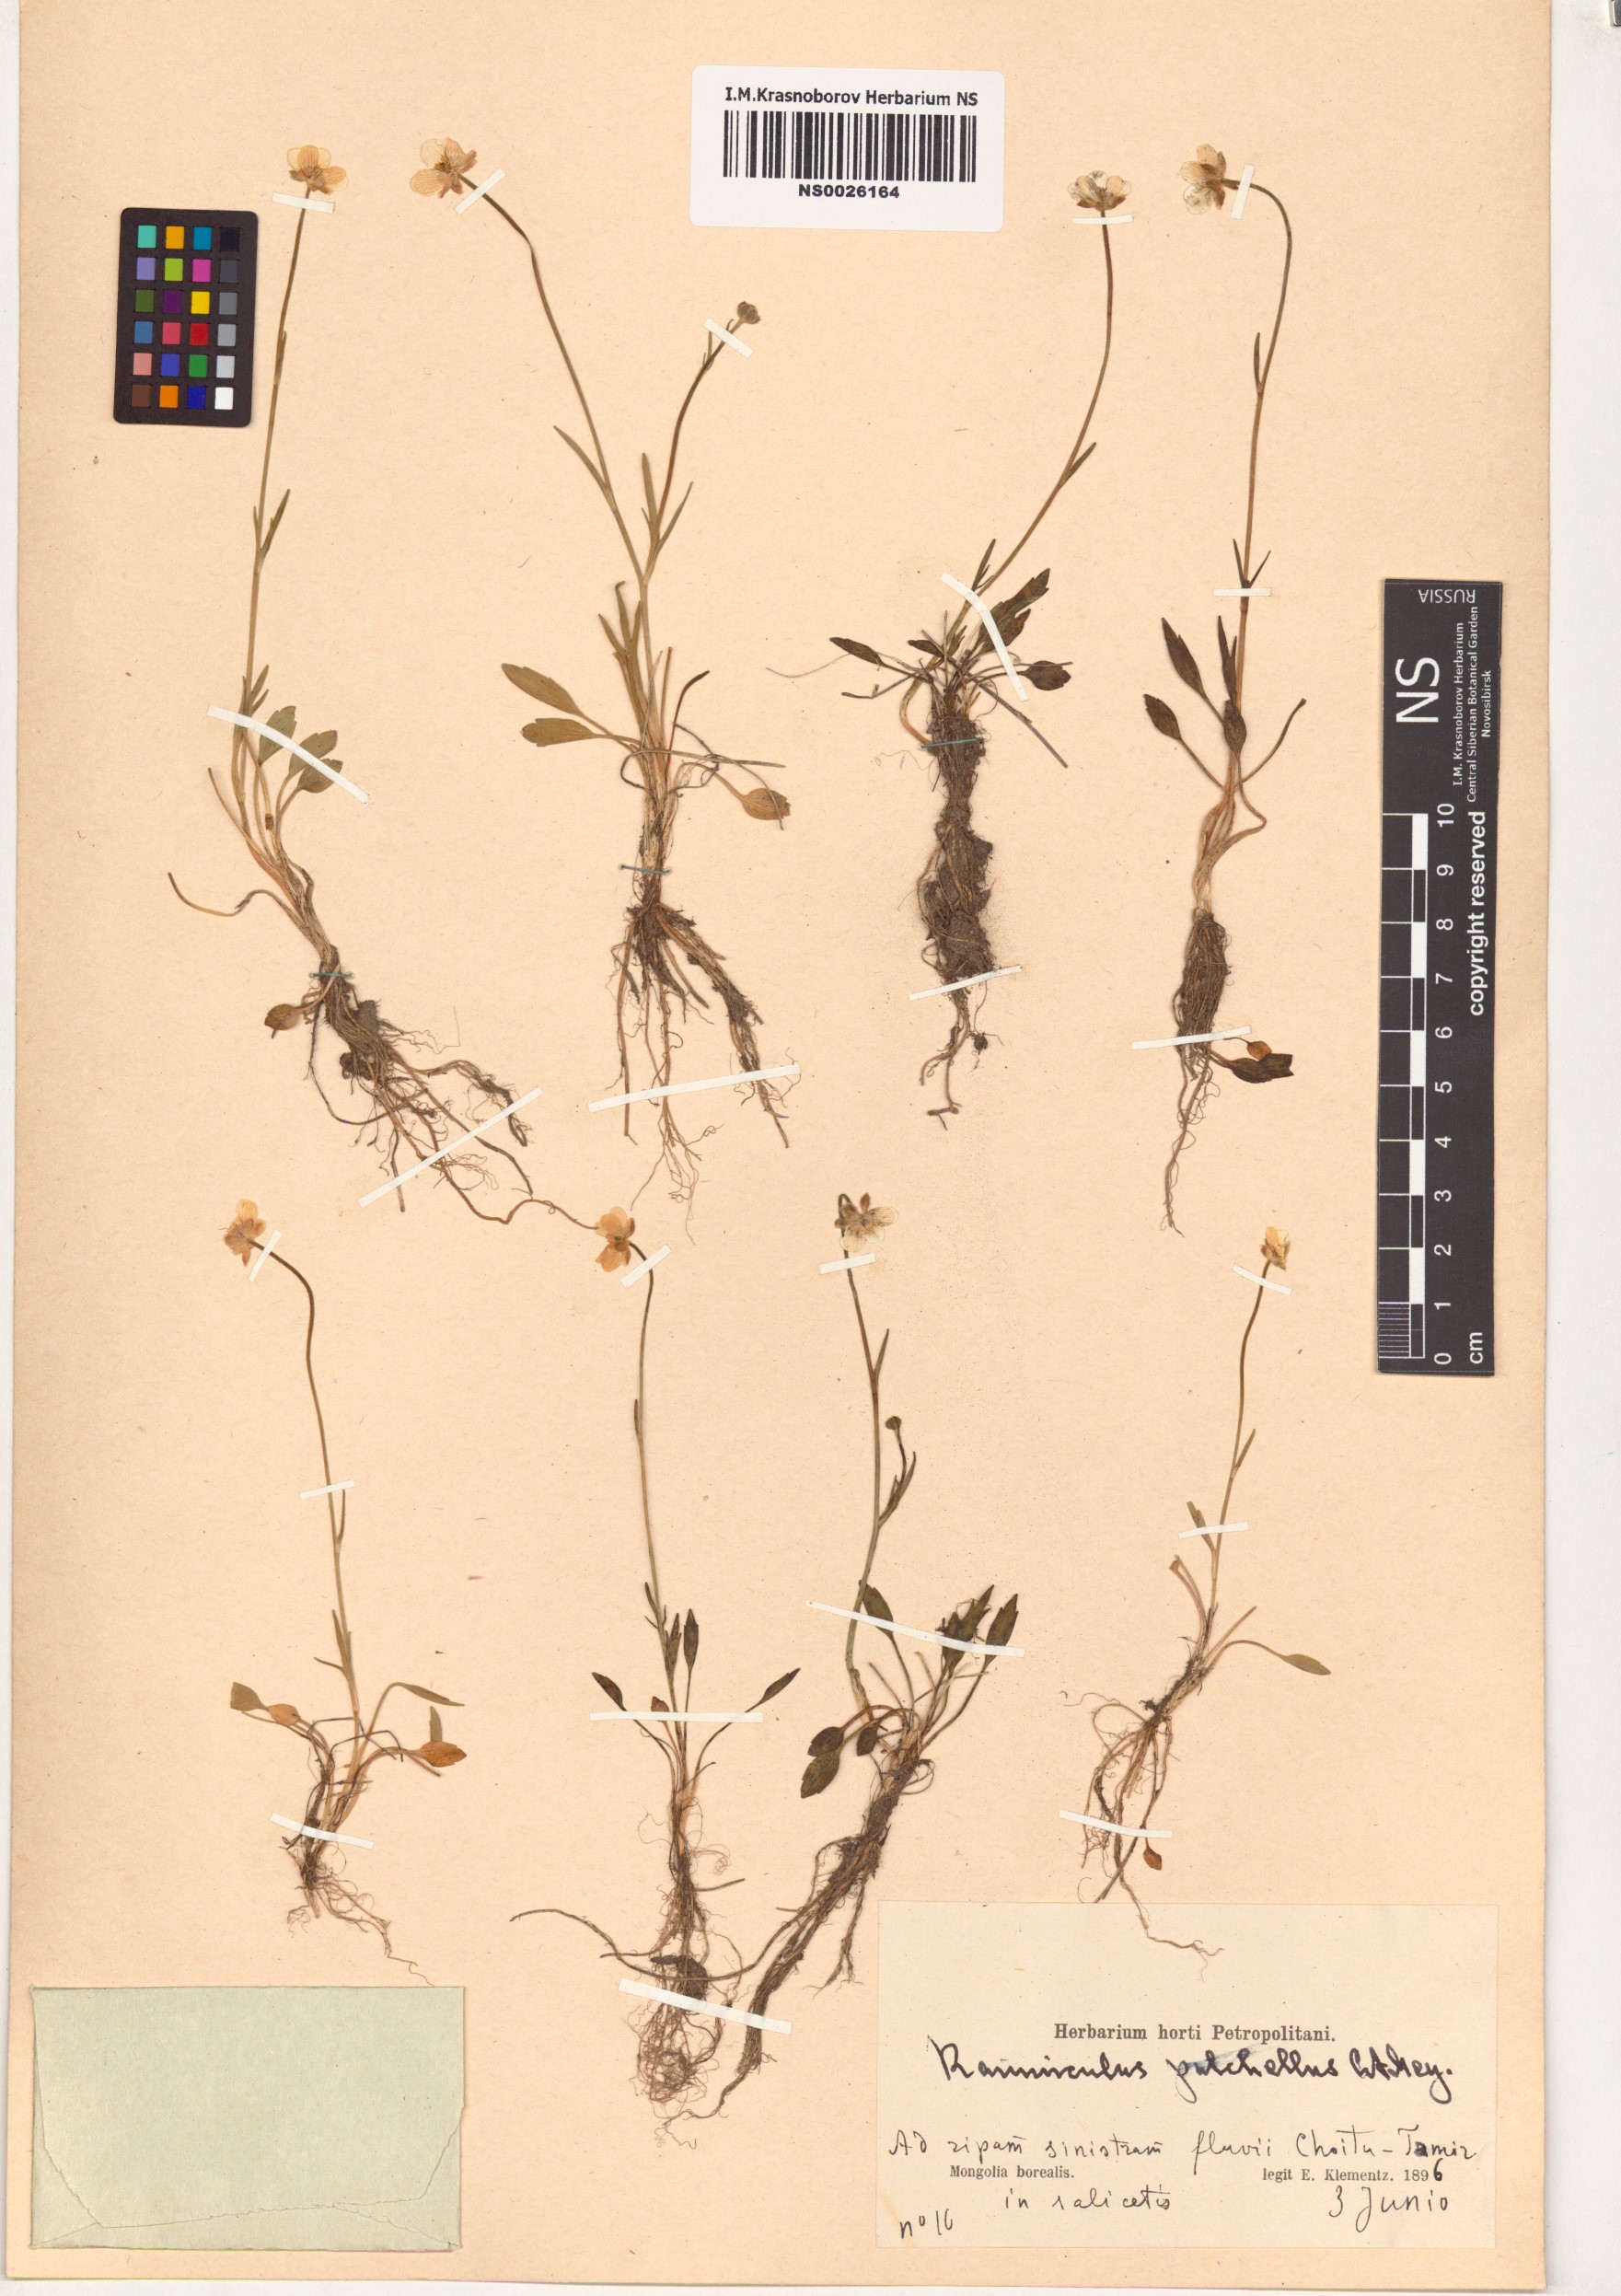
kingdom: Plantae
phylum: Tracheophyta
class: Magnoliopsida
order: Ranunculales
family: Ranunculaceae
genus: Ranunculus
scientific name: Ranunculus pulchellus
